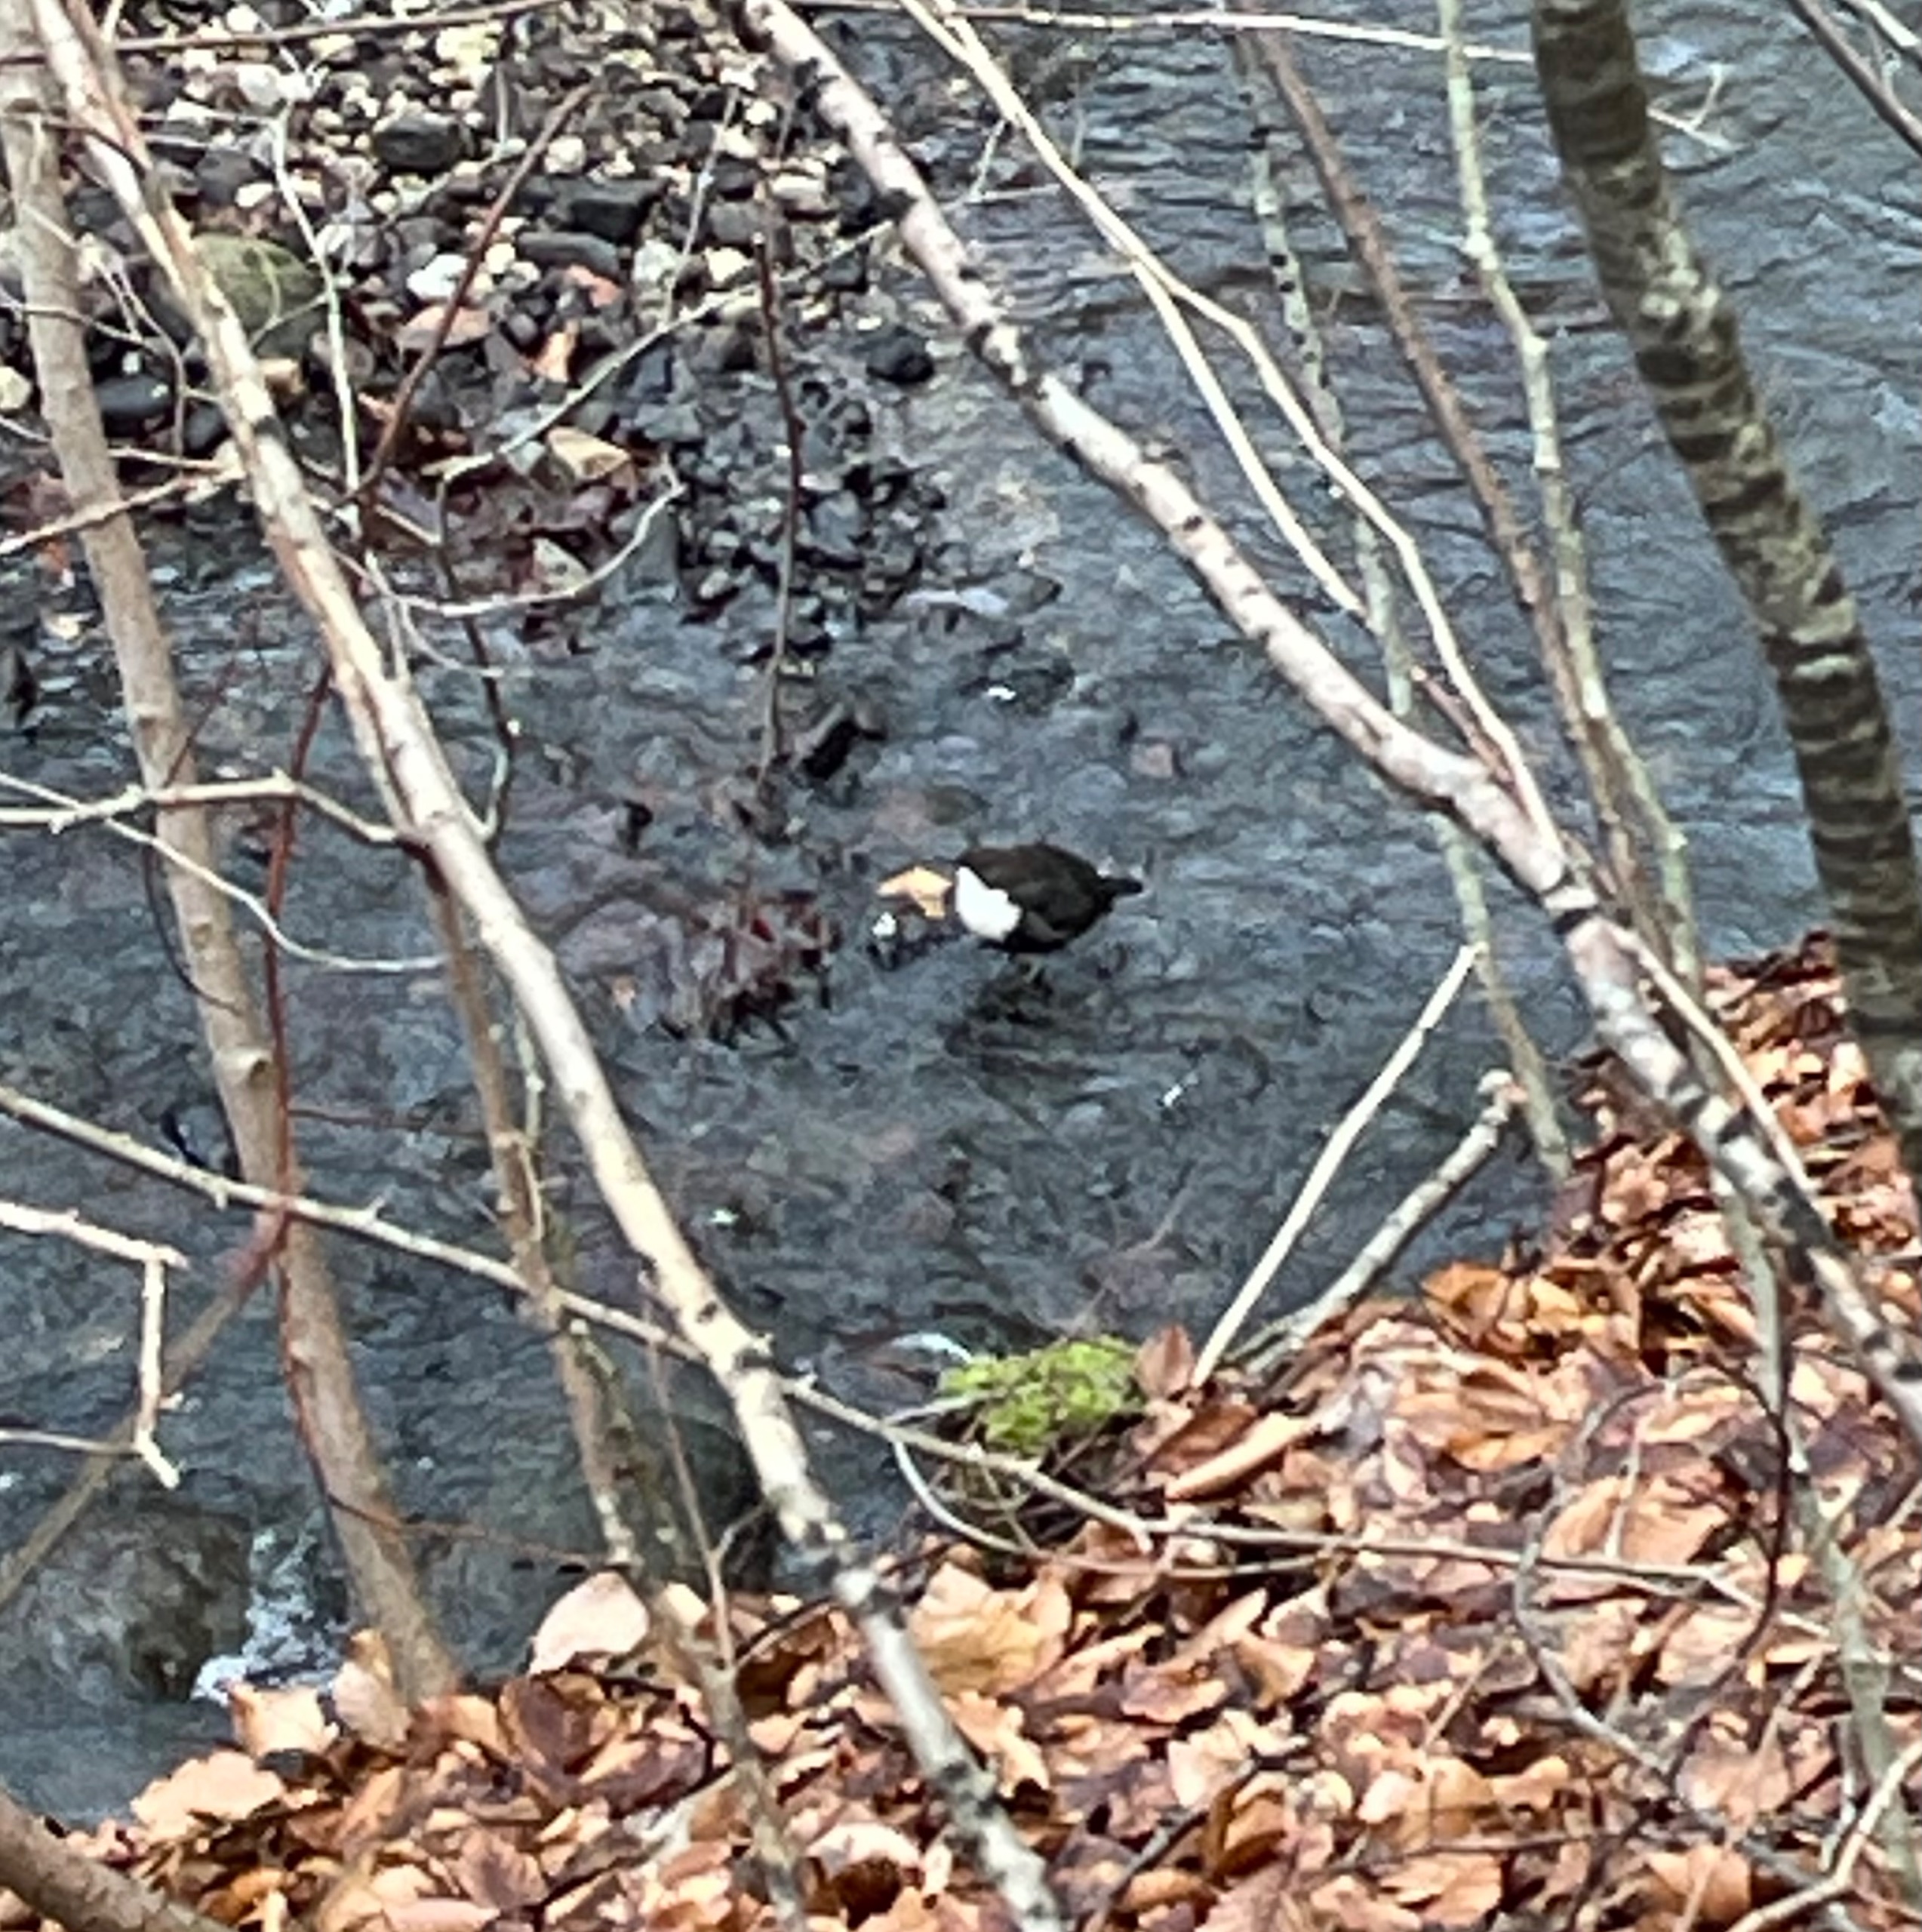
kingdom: Animalia
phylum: Chordata
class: Aves
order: Passeriformes
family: Cinclidae
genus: Cinclus
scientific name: Cinclus cinclus
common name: Vandstær
